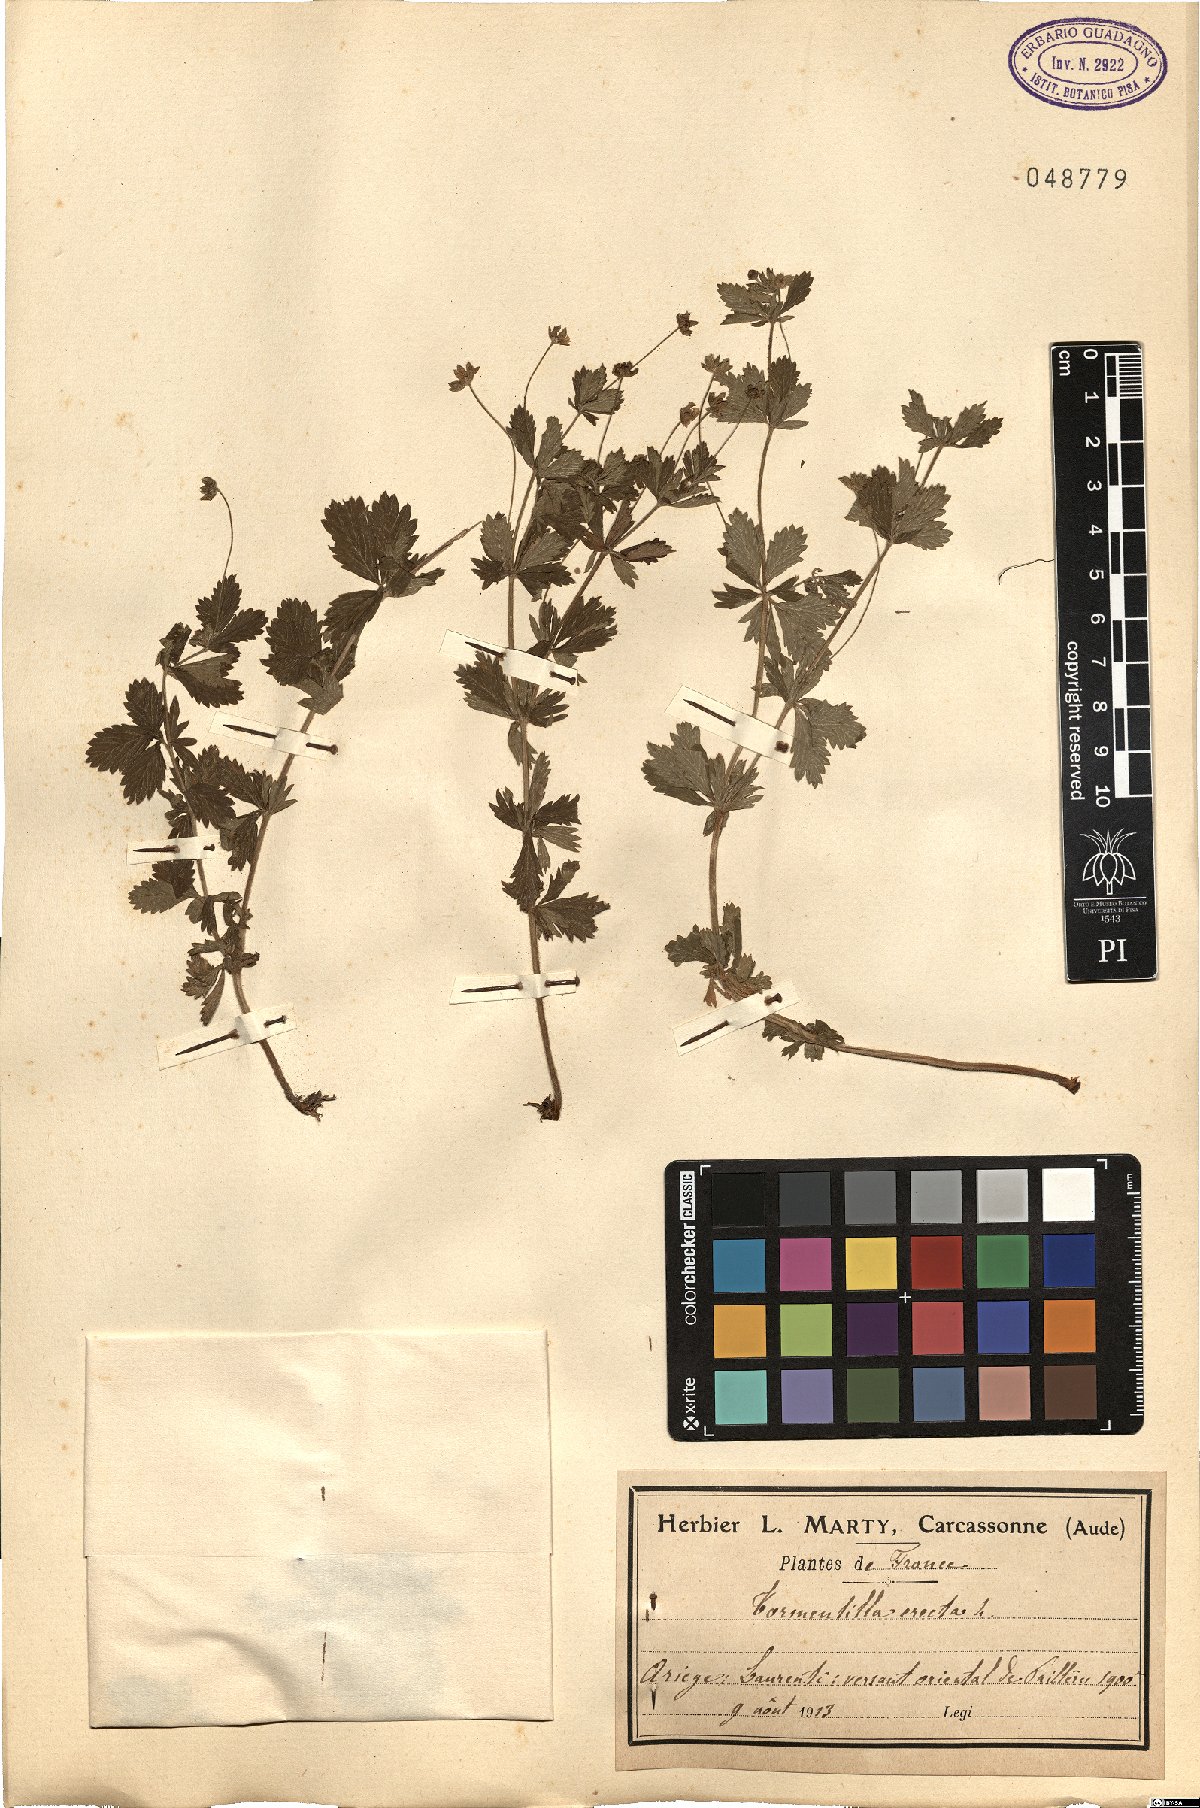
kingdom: Plantae
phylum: Tracheophyta
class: Magnoliopsida
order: Rosales
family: Rosaceae
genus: Potentilla
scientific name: Potentilla erecta
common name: Tormentil
